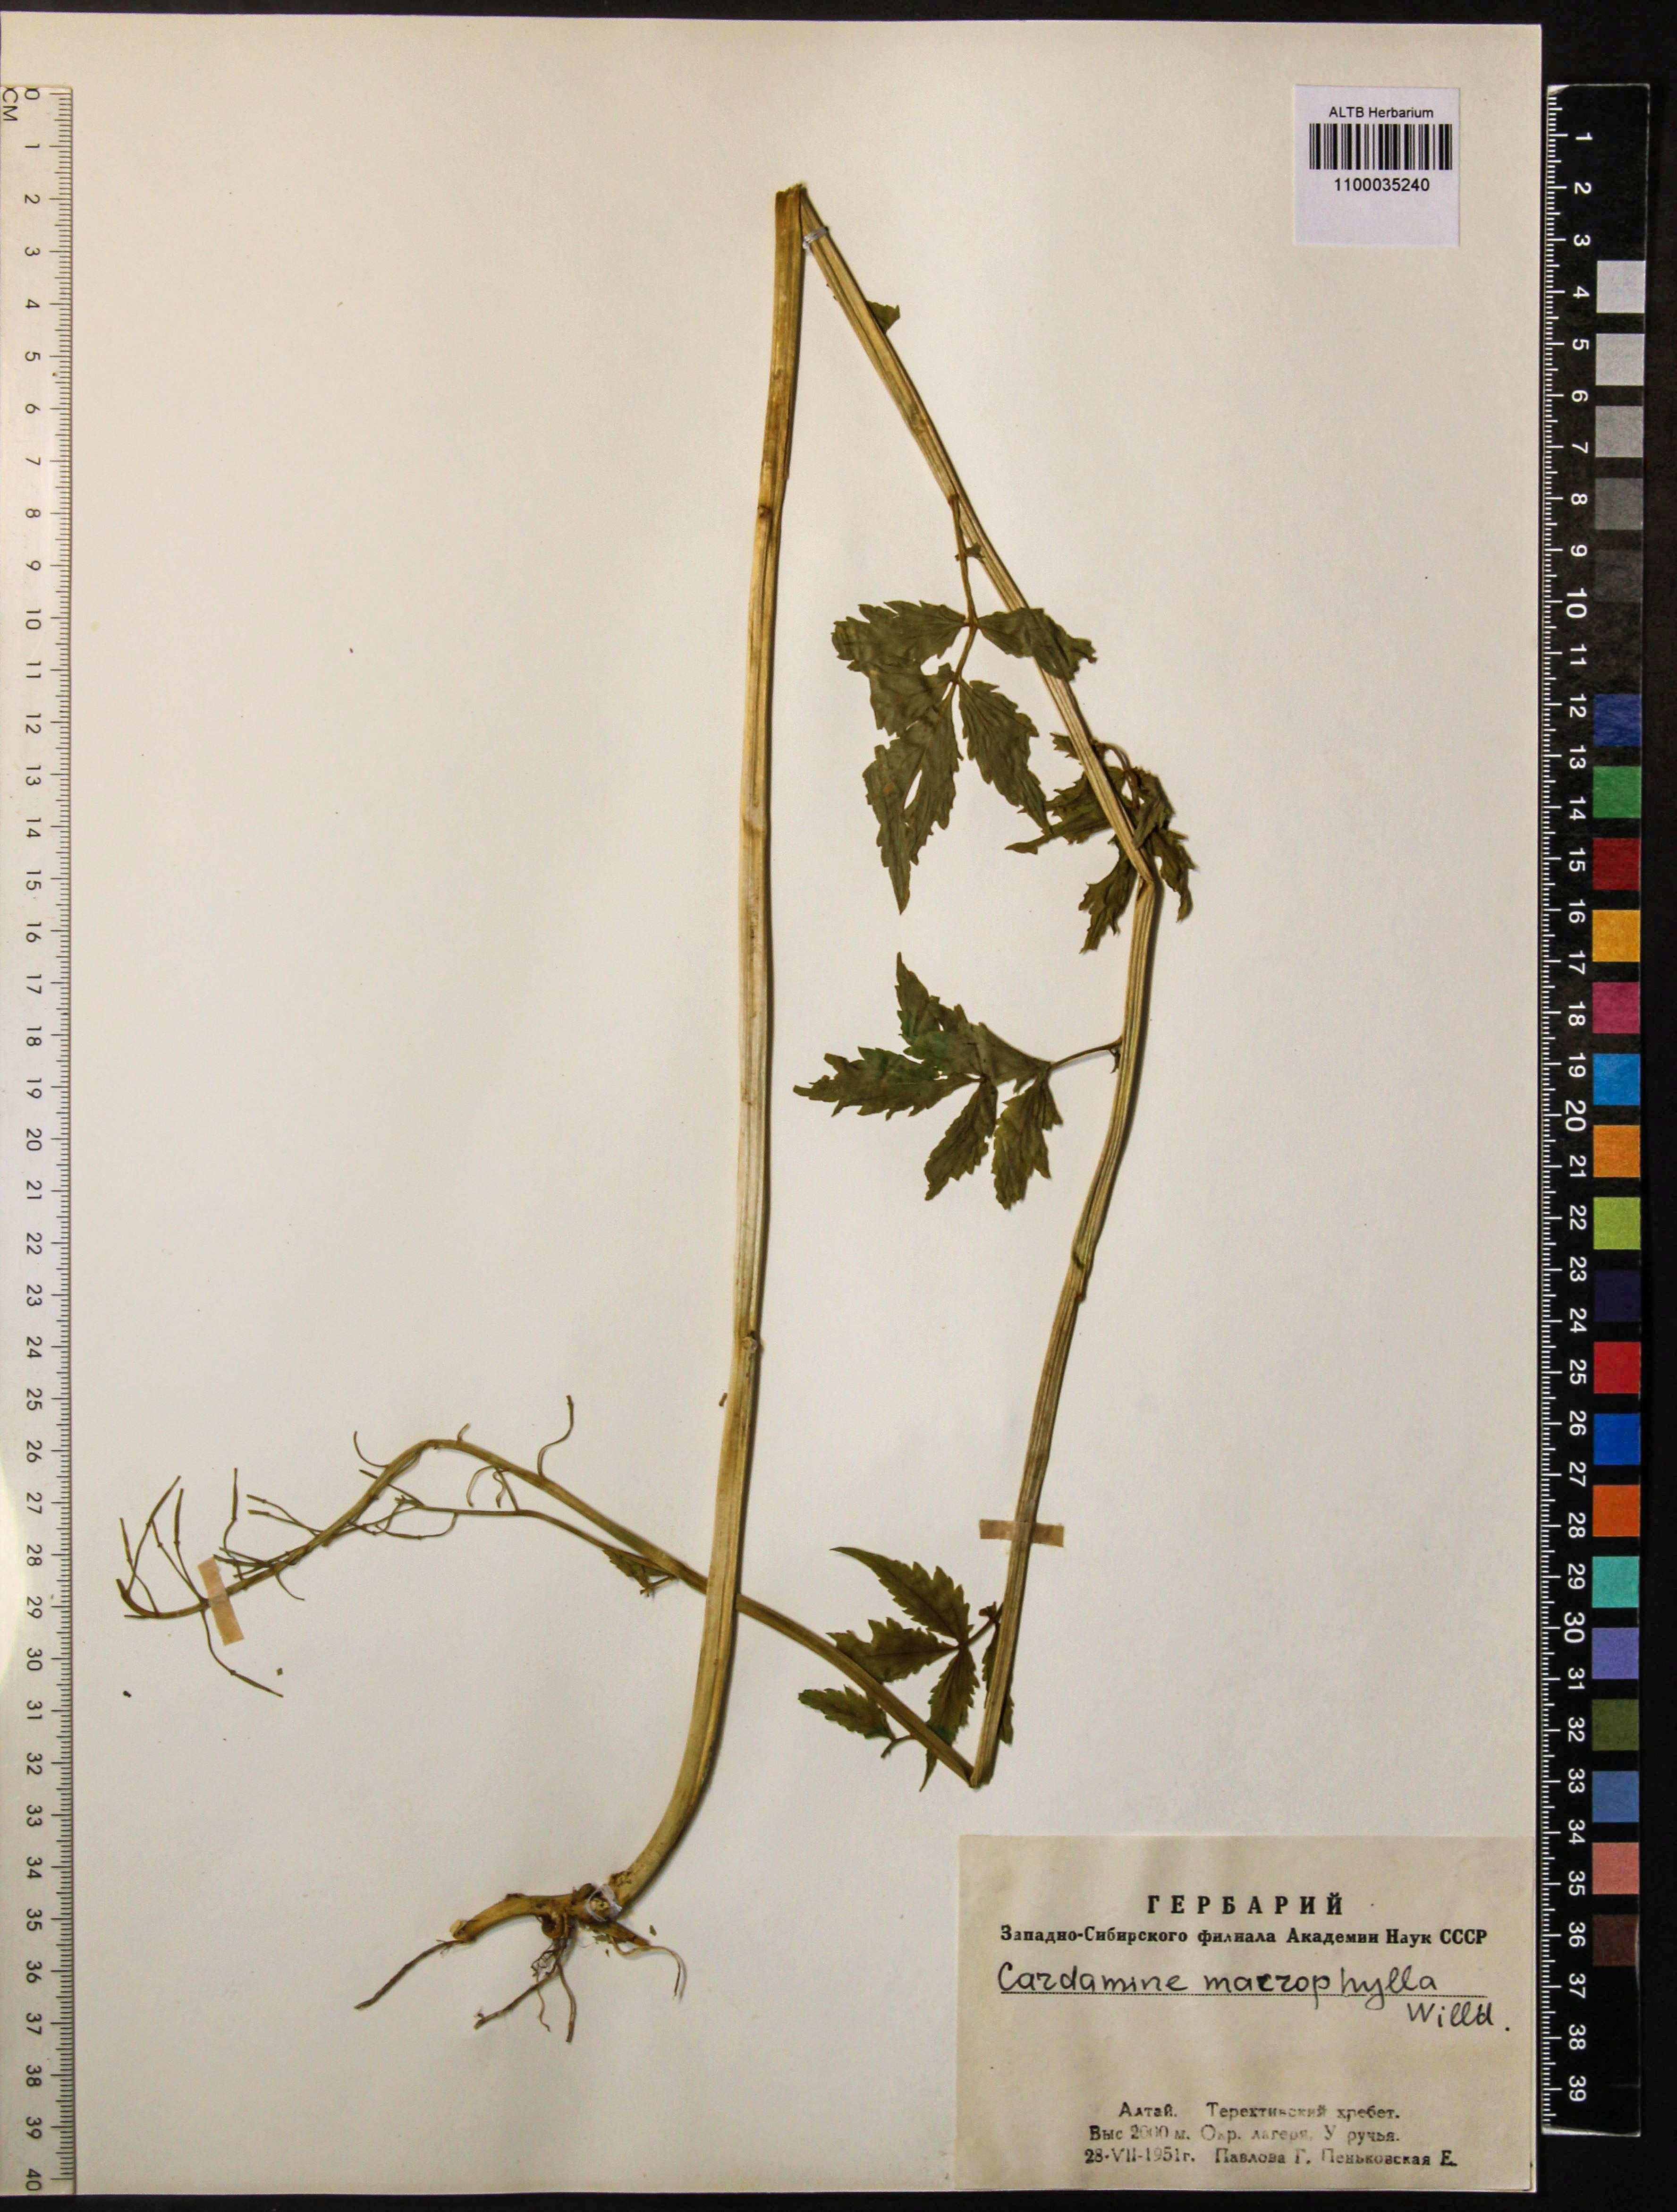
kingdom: Plantae
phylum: Tracheophyta
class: Magnoliopsida
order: Brassicales
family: Brassicaceae
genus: Cardamine
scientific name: Cardamine macrophylla
